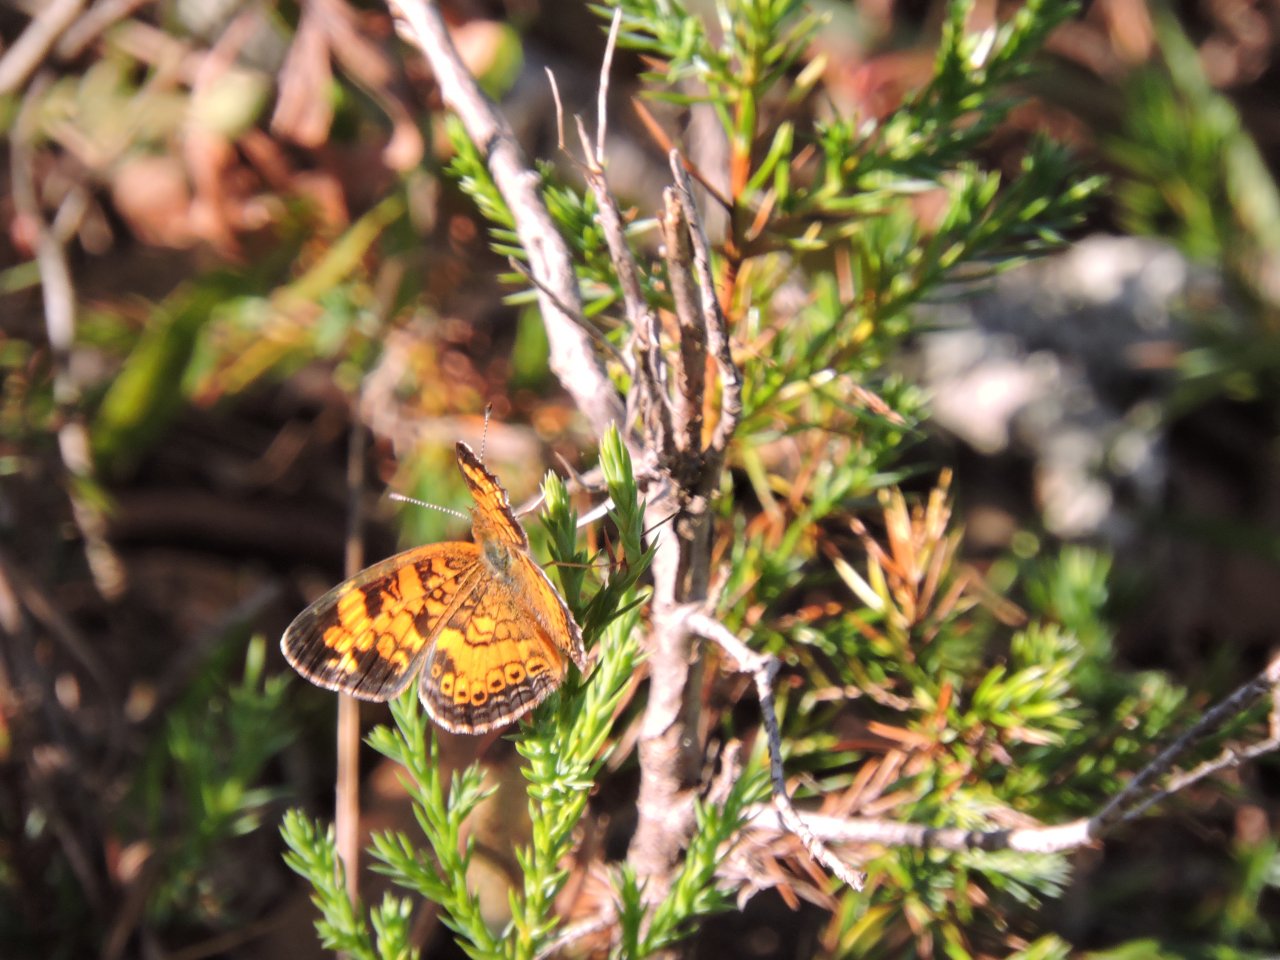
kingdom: Animalia
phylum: Arthropoda
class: Insecta
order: Lepidoptera
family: Nymphalidae
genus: Phyciodes
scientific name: Phyciodes tharos
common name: Pearl Crescent
